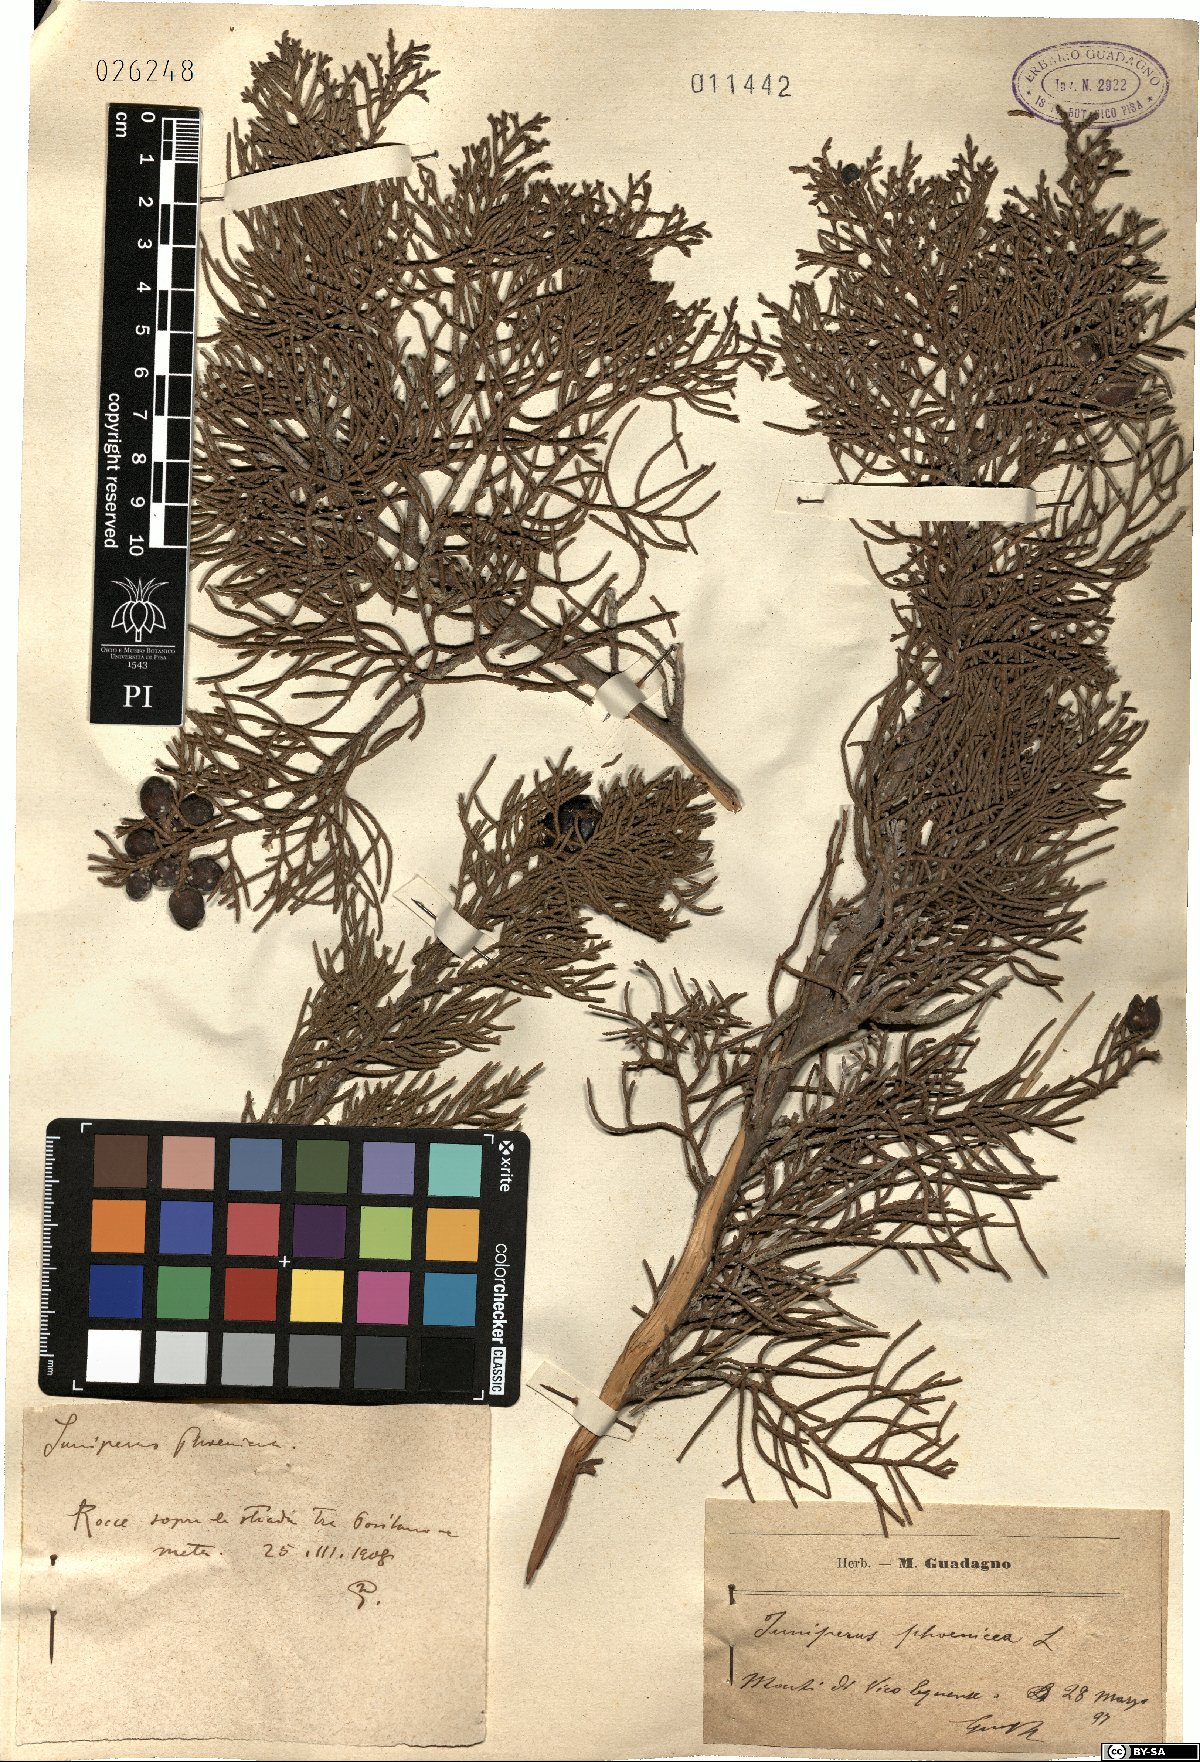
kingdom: Plantae
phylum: Tracheophyta
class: Pinopsida
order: Pinales
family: Cupressaceae
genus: Juniperus
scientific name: Juniperus phoenicea
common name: Phoenician juniper
